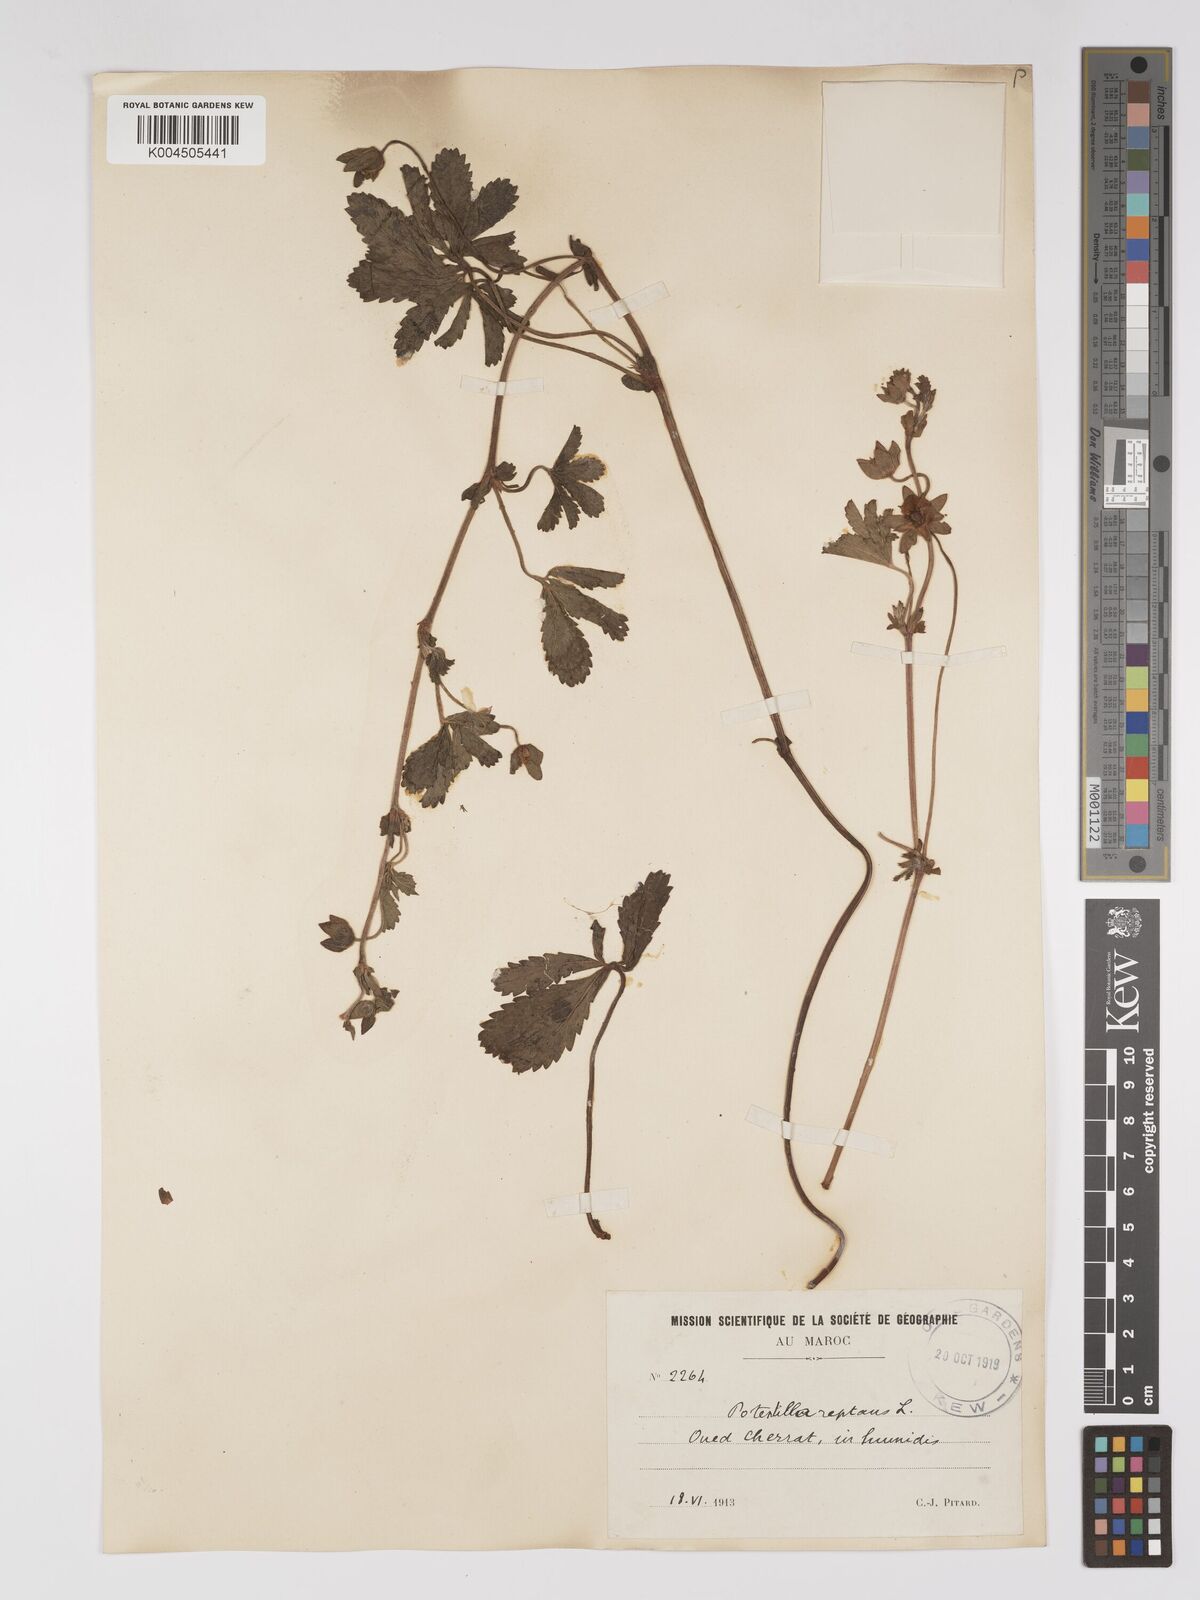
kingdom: Plantae
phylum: Tracheophyta
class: Magnoliopsida
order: Rosales
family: Rosaceae
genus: Potentilla
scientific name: Potentilla reptans
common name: Creeping cinquefoil
